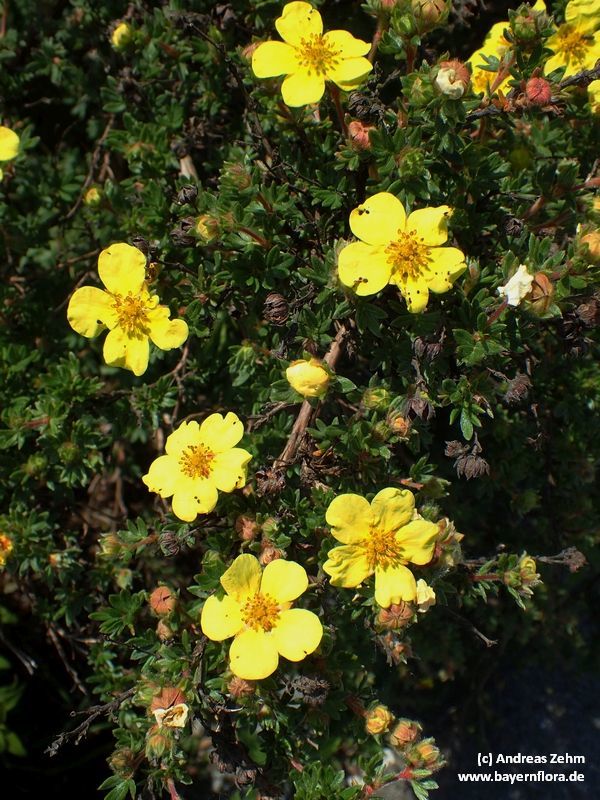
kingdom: Plantae
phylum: Tracheophyta
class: Magnoliopsida
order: Rosales
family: Rosaceae
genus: Dasiphora
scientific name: Dasiphora fruticosa
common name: Shrubby cinquefoil
